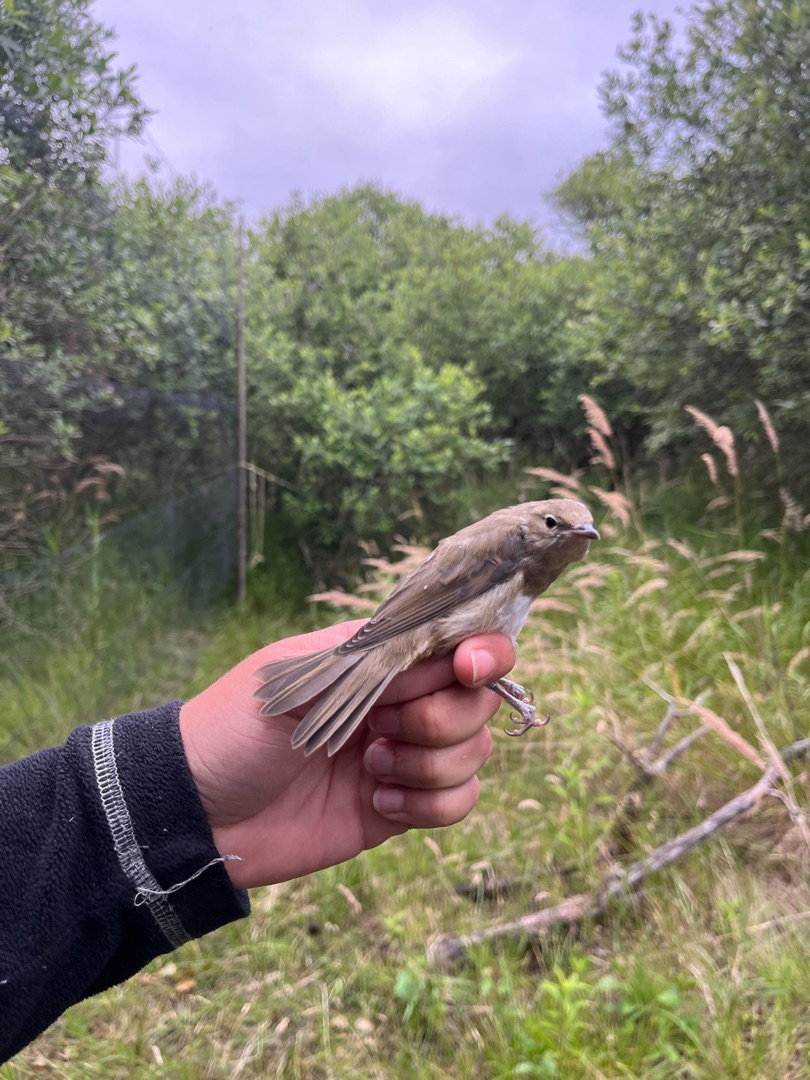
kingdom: Animalia
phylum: Chordata
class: Aves
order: Passeriformes
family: Sylviidae
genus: Sylvia
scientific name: Sylvia borin
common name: Havesanger
